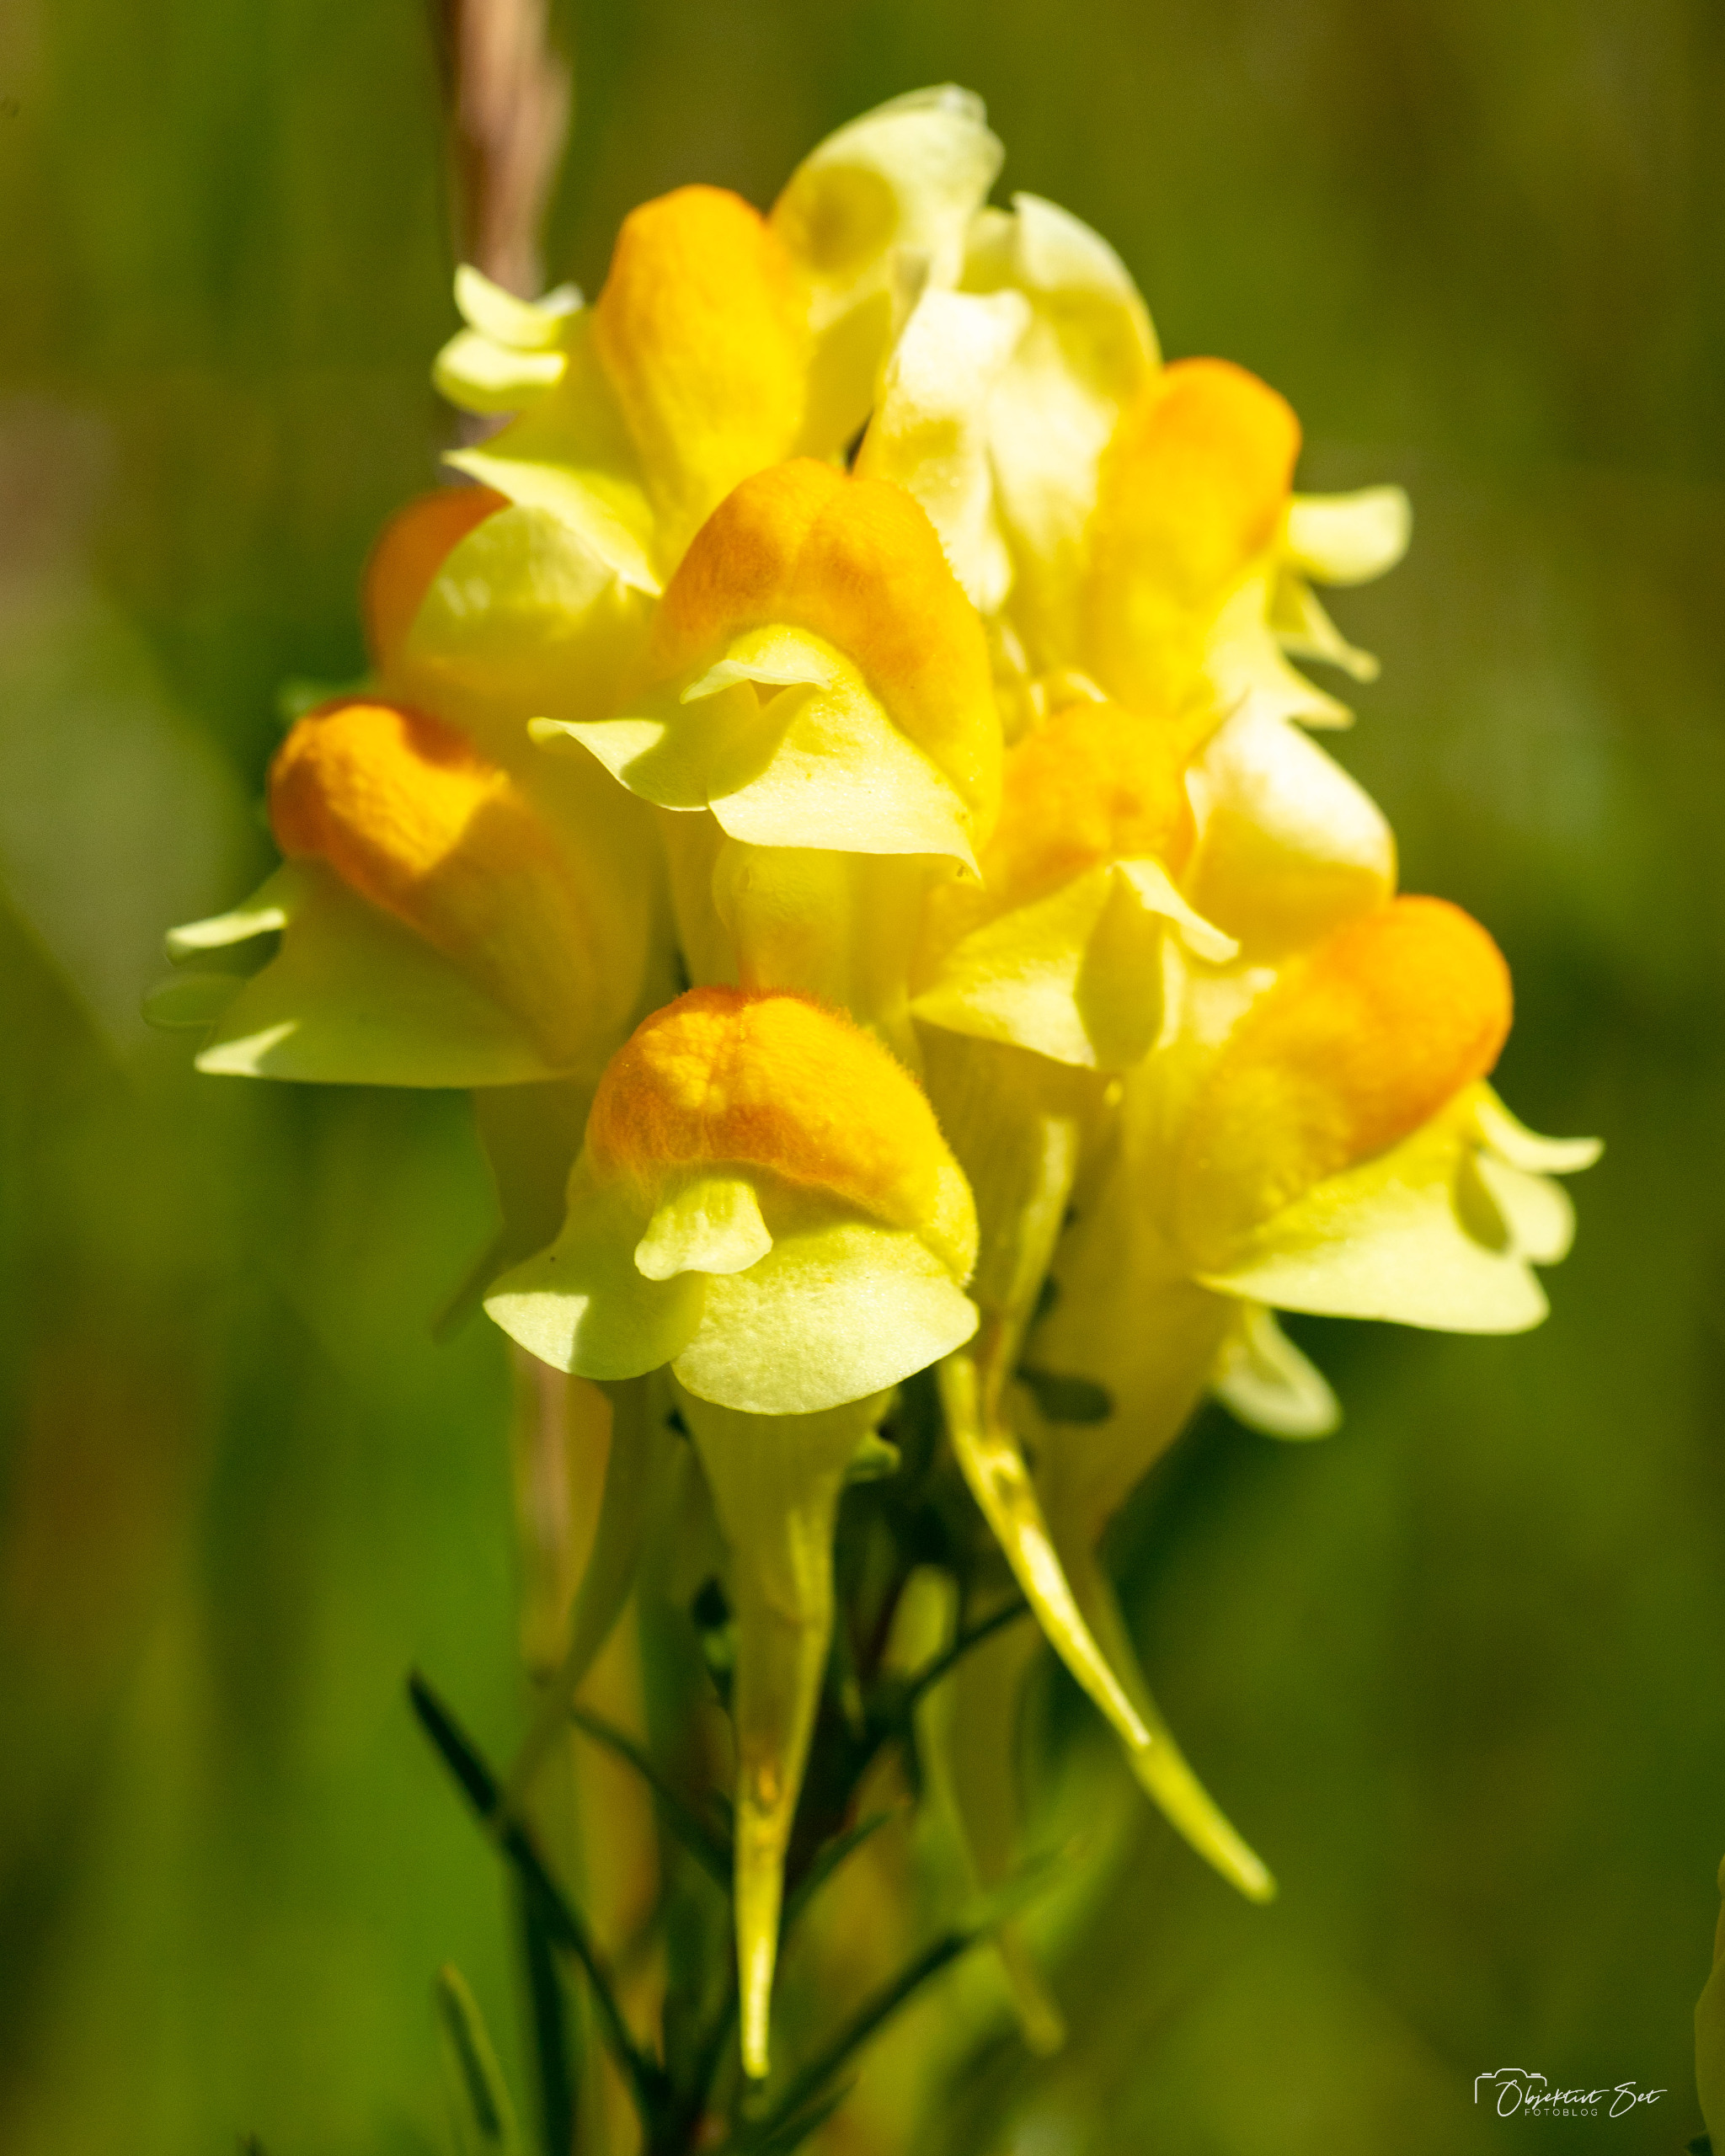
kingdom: Plantae
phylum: Tracheophyta
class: Magnoliopsida
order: Lamiales
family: Plantaginaceae
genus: Linaria
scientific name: Linaria vulgaris
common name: Almindelig torskemund
